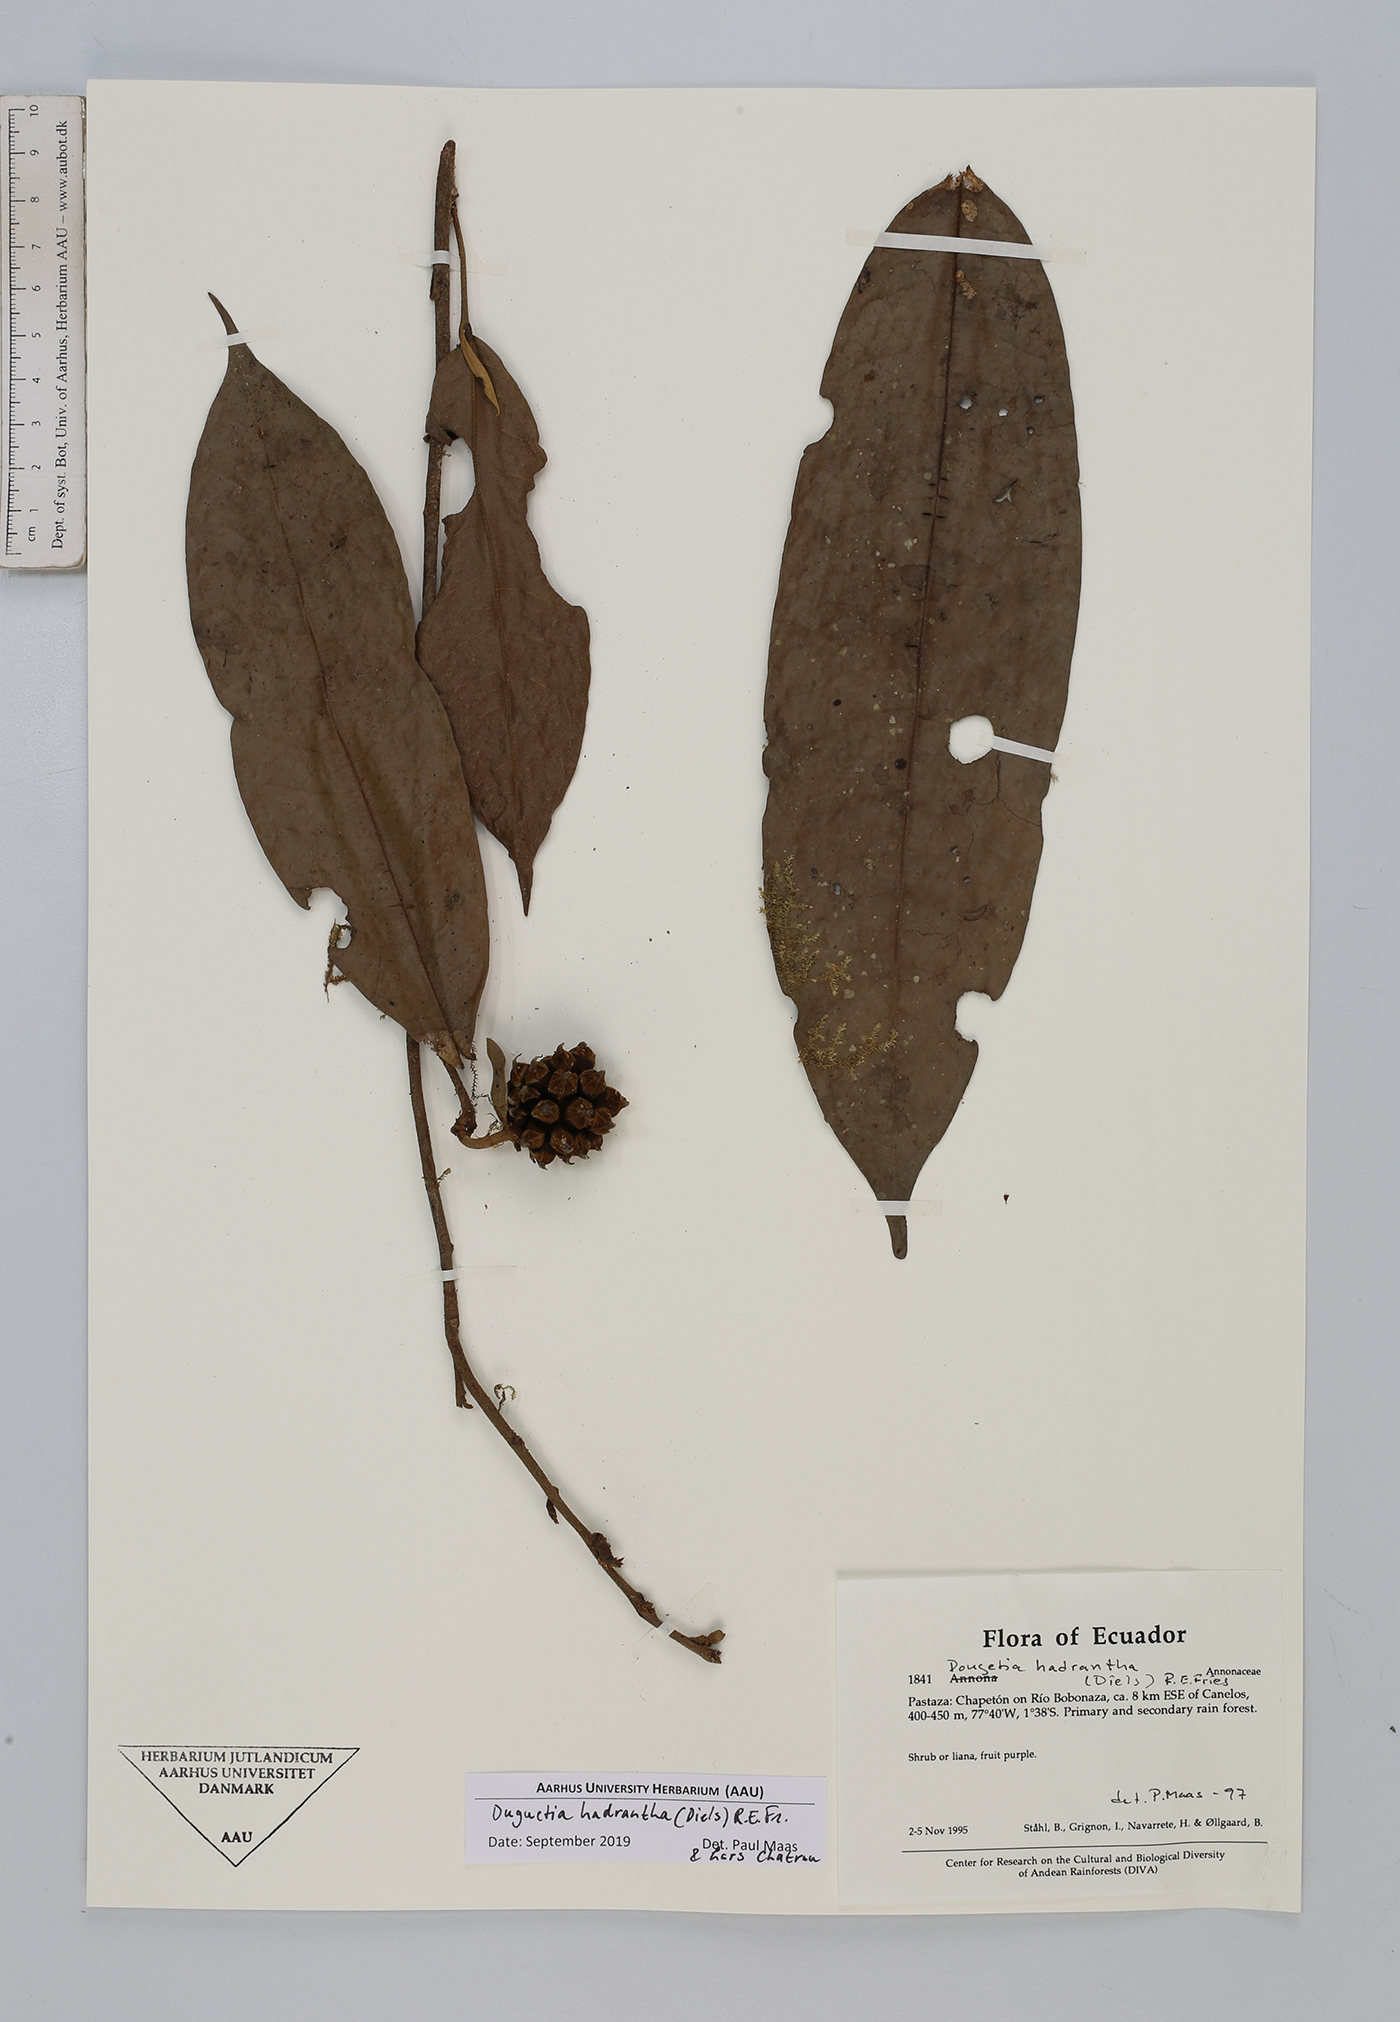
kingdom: Plantae
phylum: Tracheophyta
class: Magnoliopsida
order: Magnoliales
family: Annonaceae
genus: Duguetia
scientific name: Duguetia hadrantha
